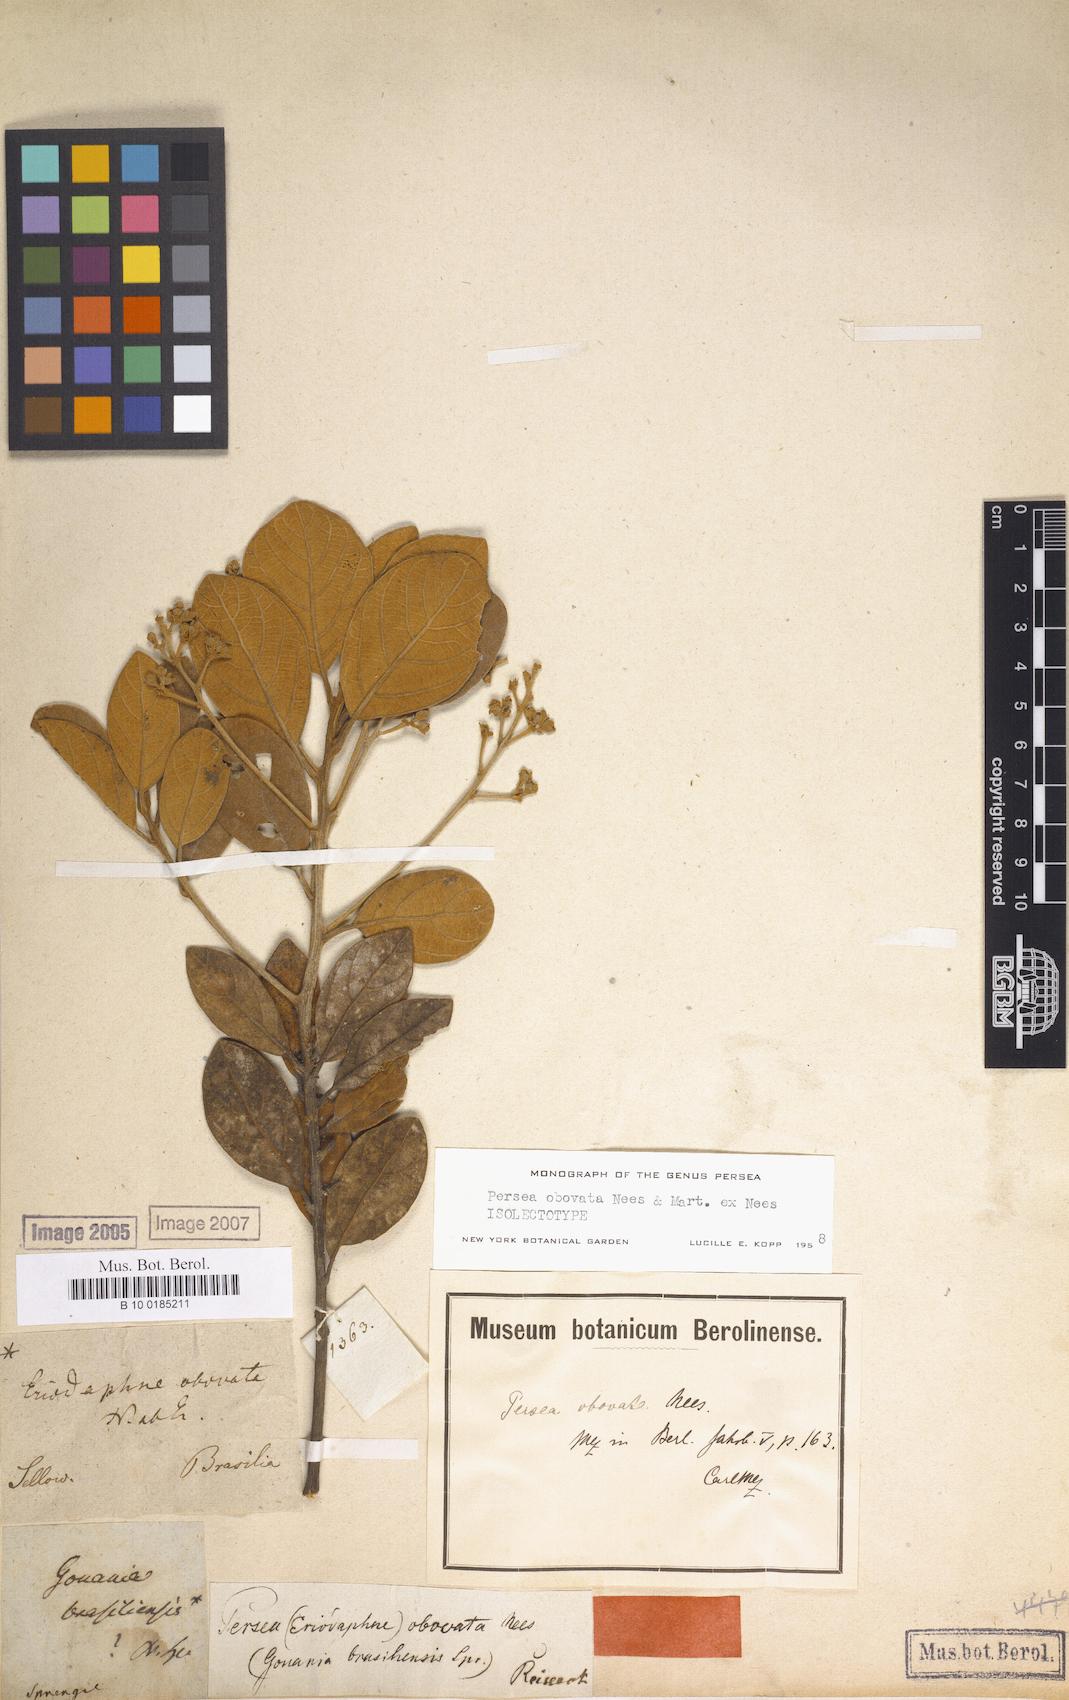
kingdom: Plantae
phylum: Tracheophyta
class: Magnoliopsida
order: Laurales
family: Lauraceae
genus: Persea
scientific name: Persea obovata
